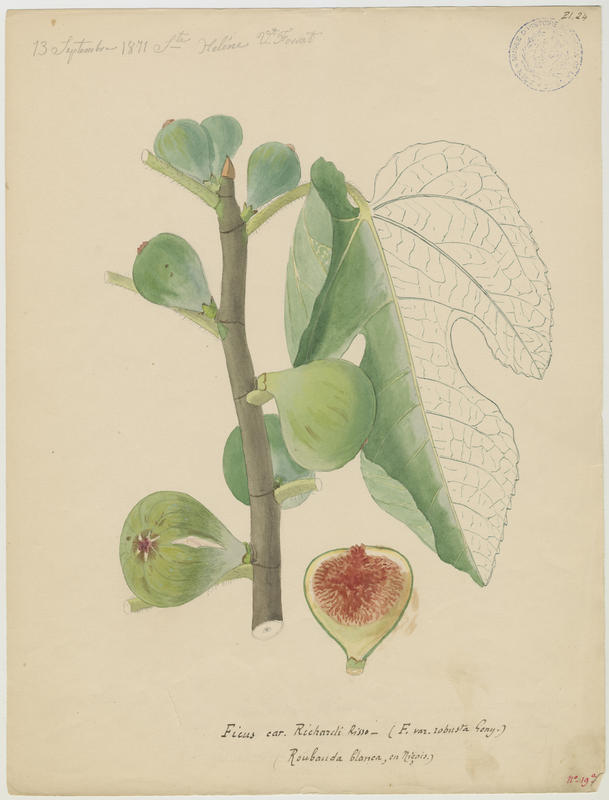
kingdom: Plantae
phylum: Tracheophyta
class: Magnoliopsida
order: Rosales
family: Moraceae
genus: Ficus
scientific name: Ficus carica
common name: Fig
